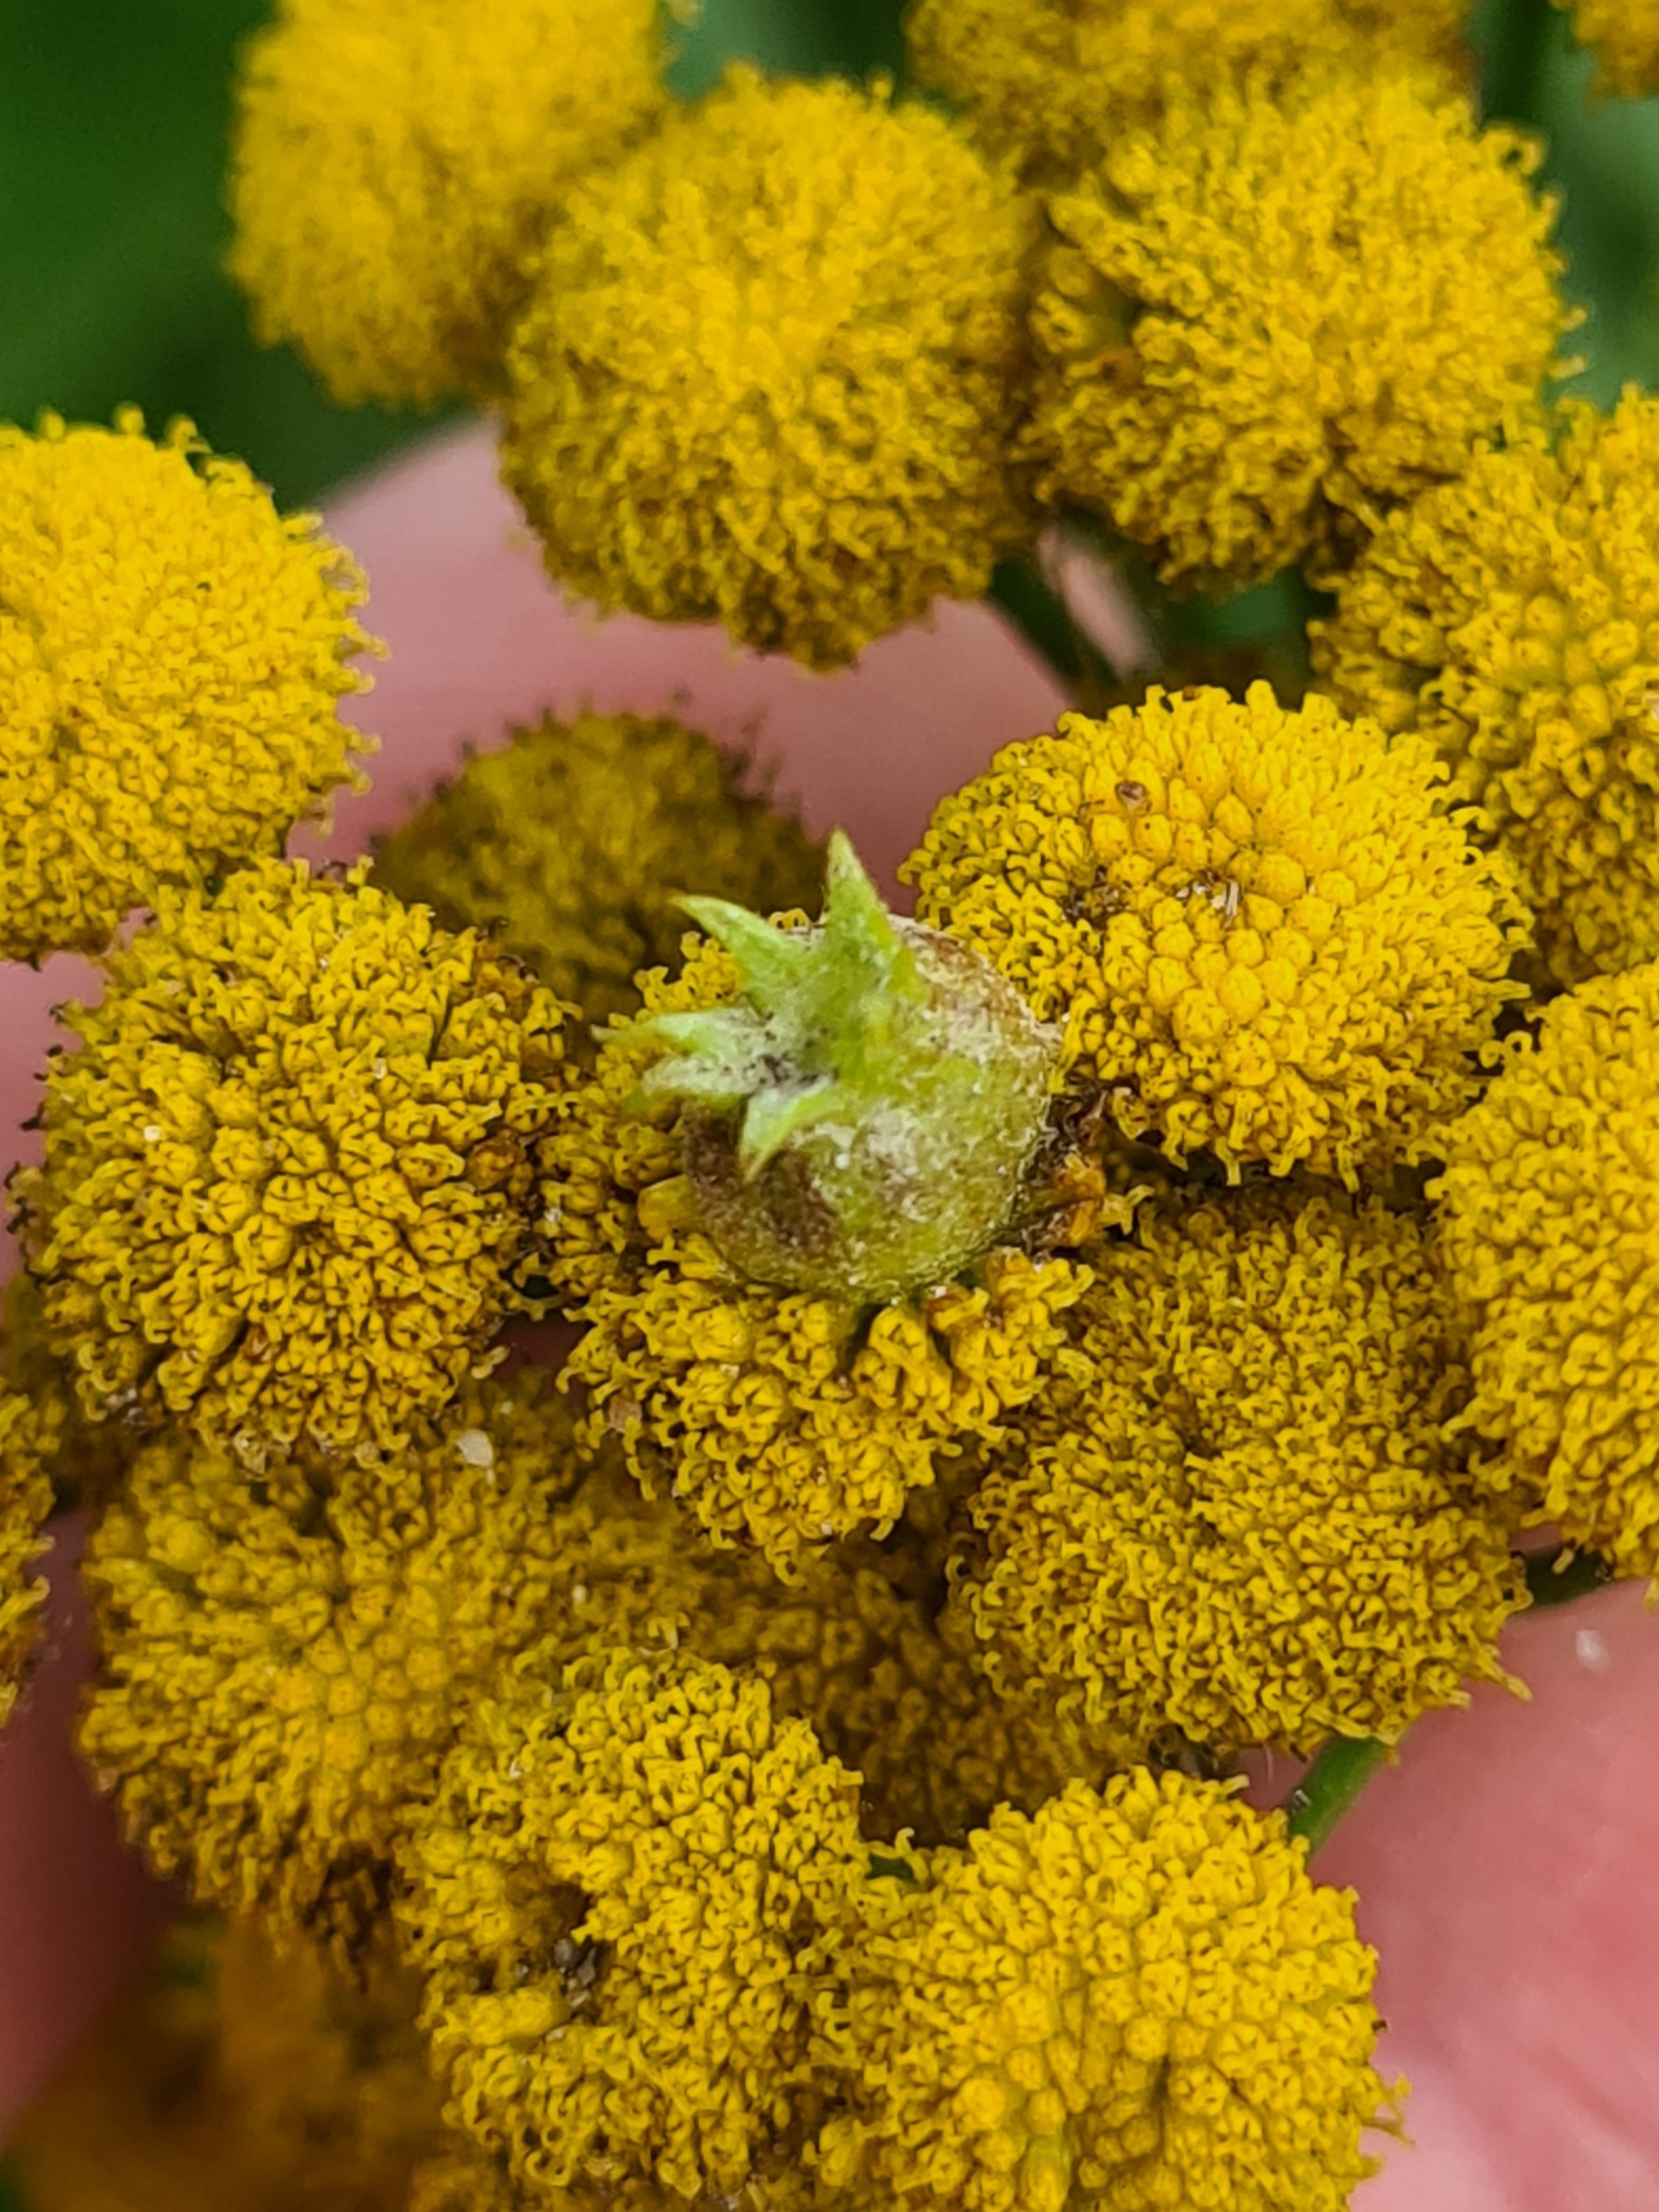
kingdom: Animalia
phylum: Arthropoda
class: Insecta
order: Diptera
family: Cecidomyiidae
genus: Rhopalomyia
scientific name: Rhopalomyia tanaceticolus
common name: Rejnfangalmyg
